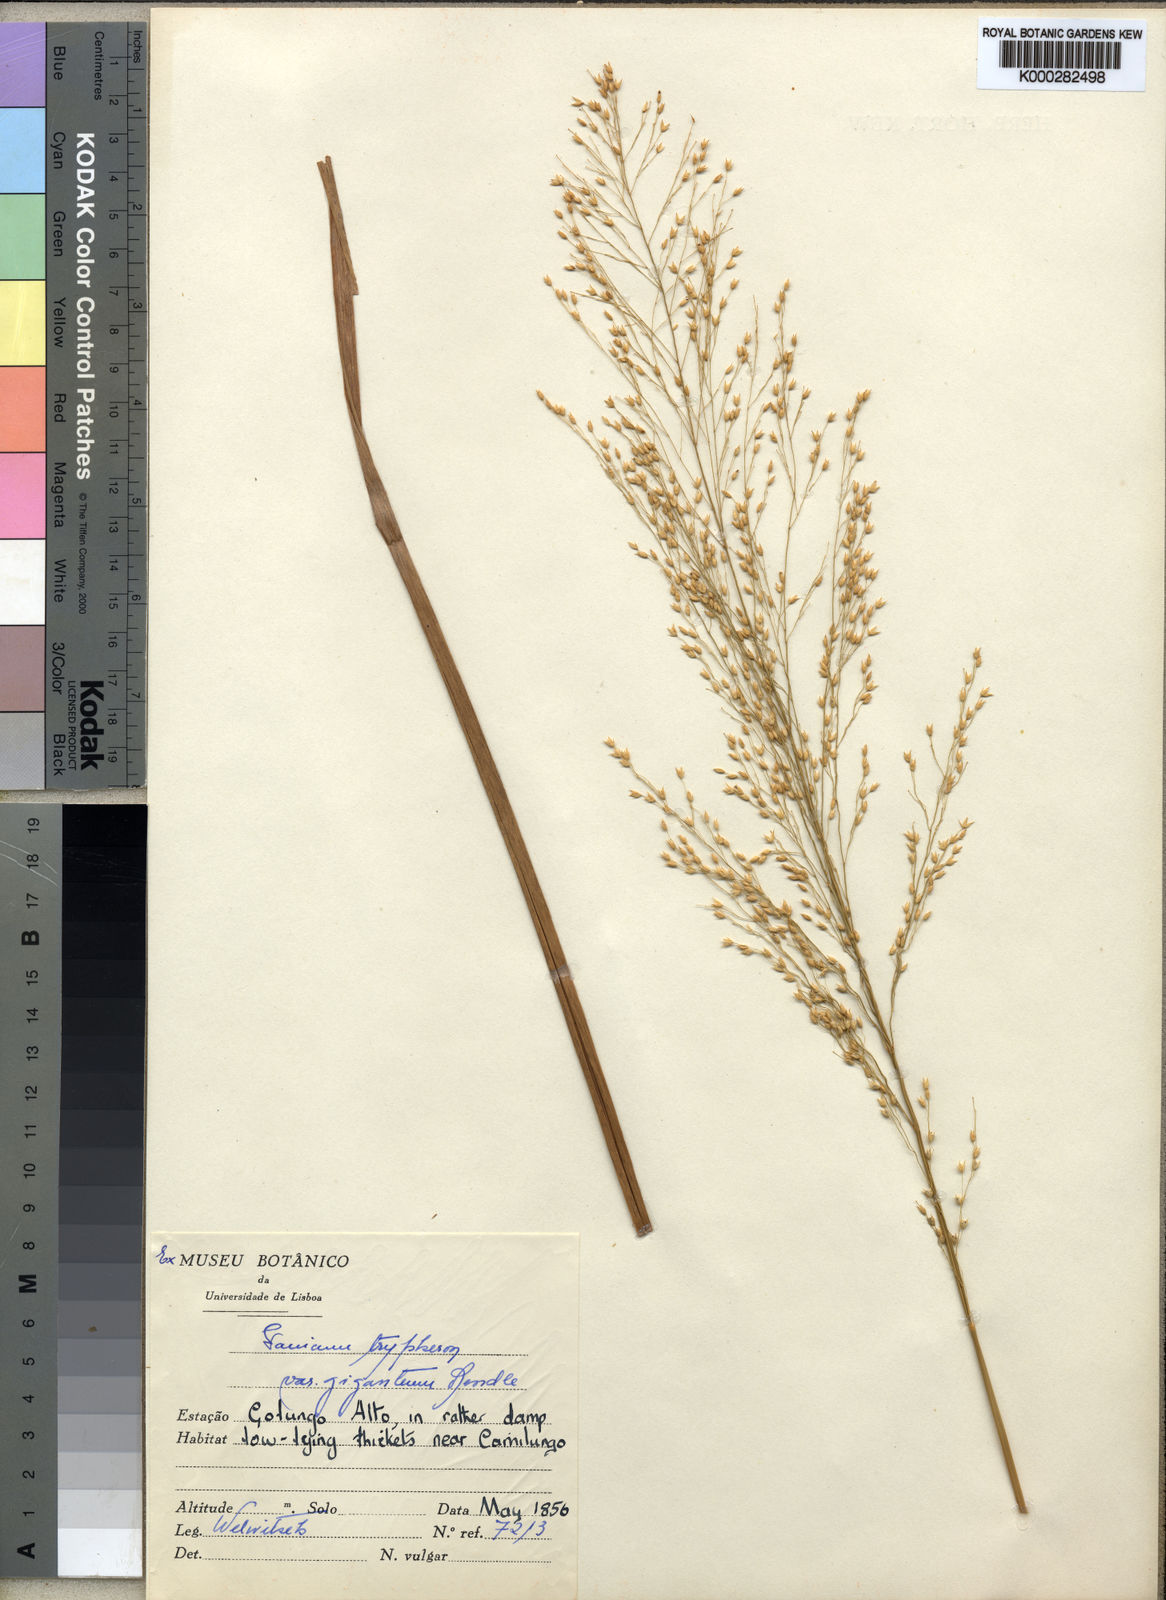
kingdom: Plantae
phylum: Tracheophyta
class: Liliopsida
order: Poales
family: Poaceae
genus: Panicum
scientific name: Panicum phragmitoides
